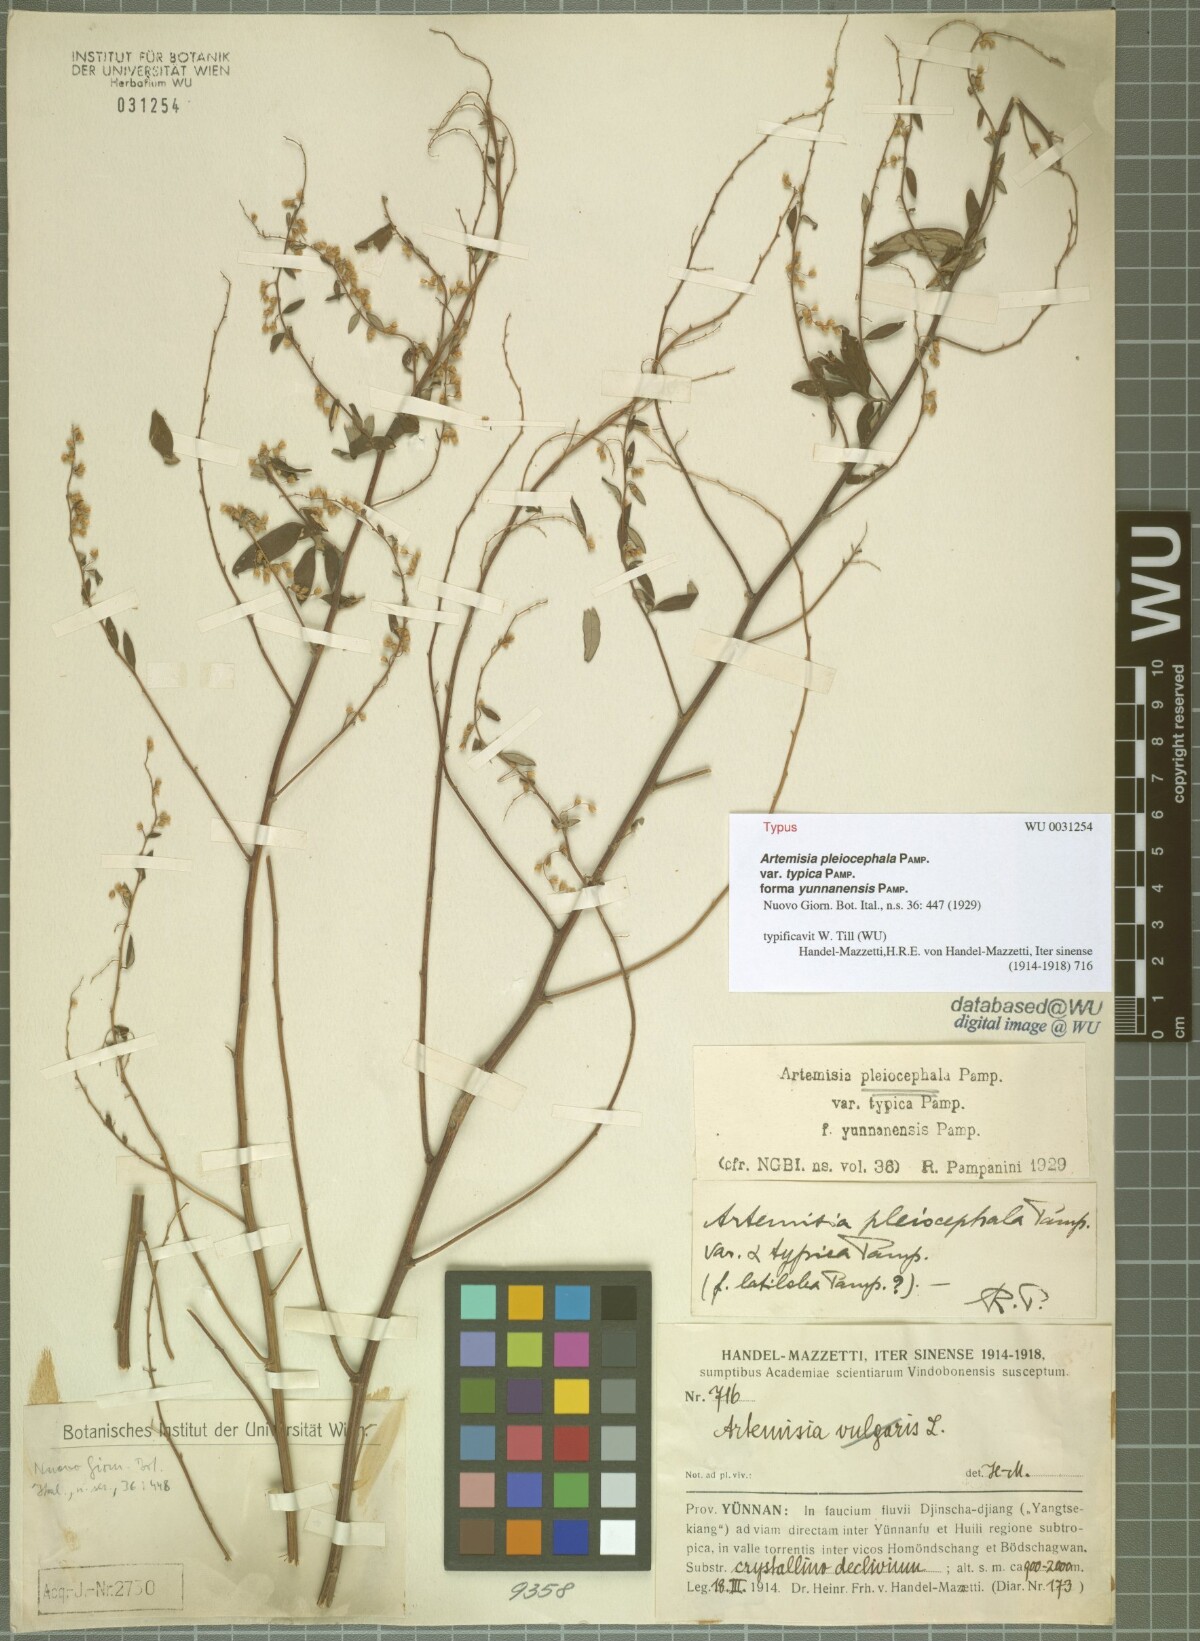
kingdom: Plantae
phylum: Tracheophyta
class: Magnoliopsida
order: Asterales
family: Asteraceae
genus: Artemisia
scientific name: Artemisia myriantha
